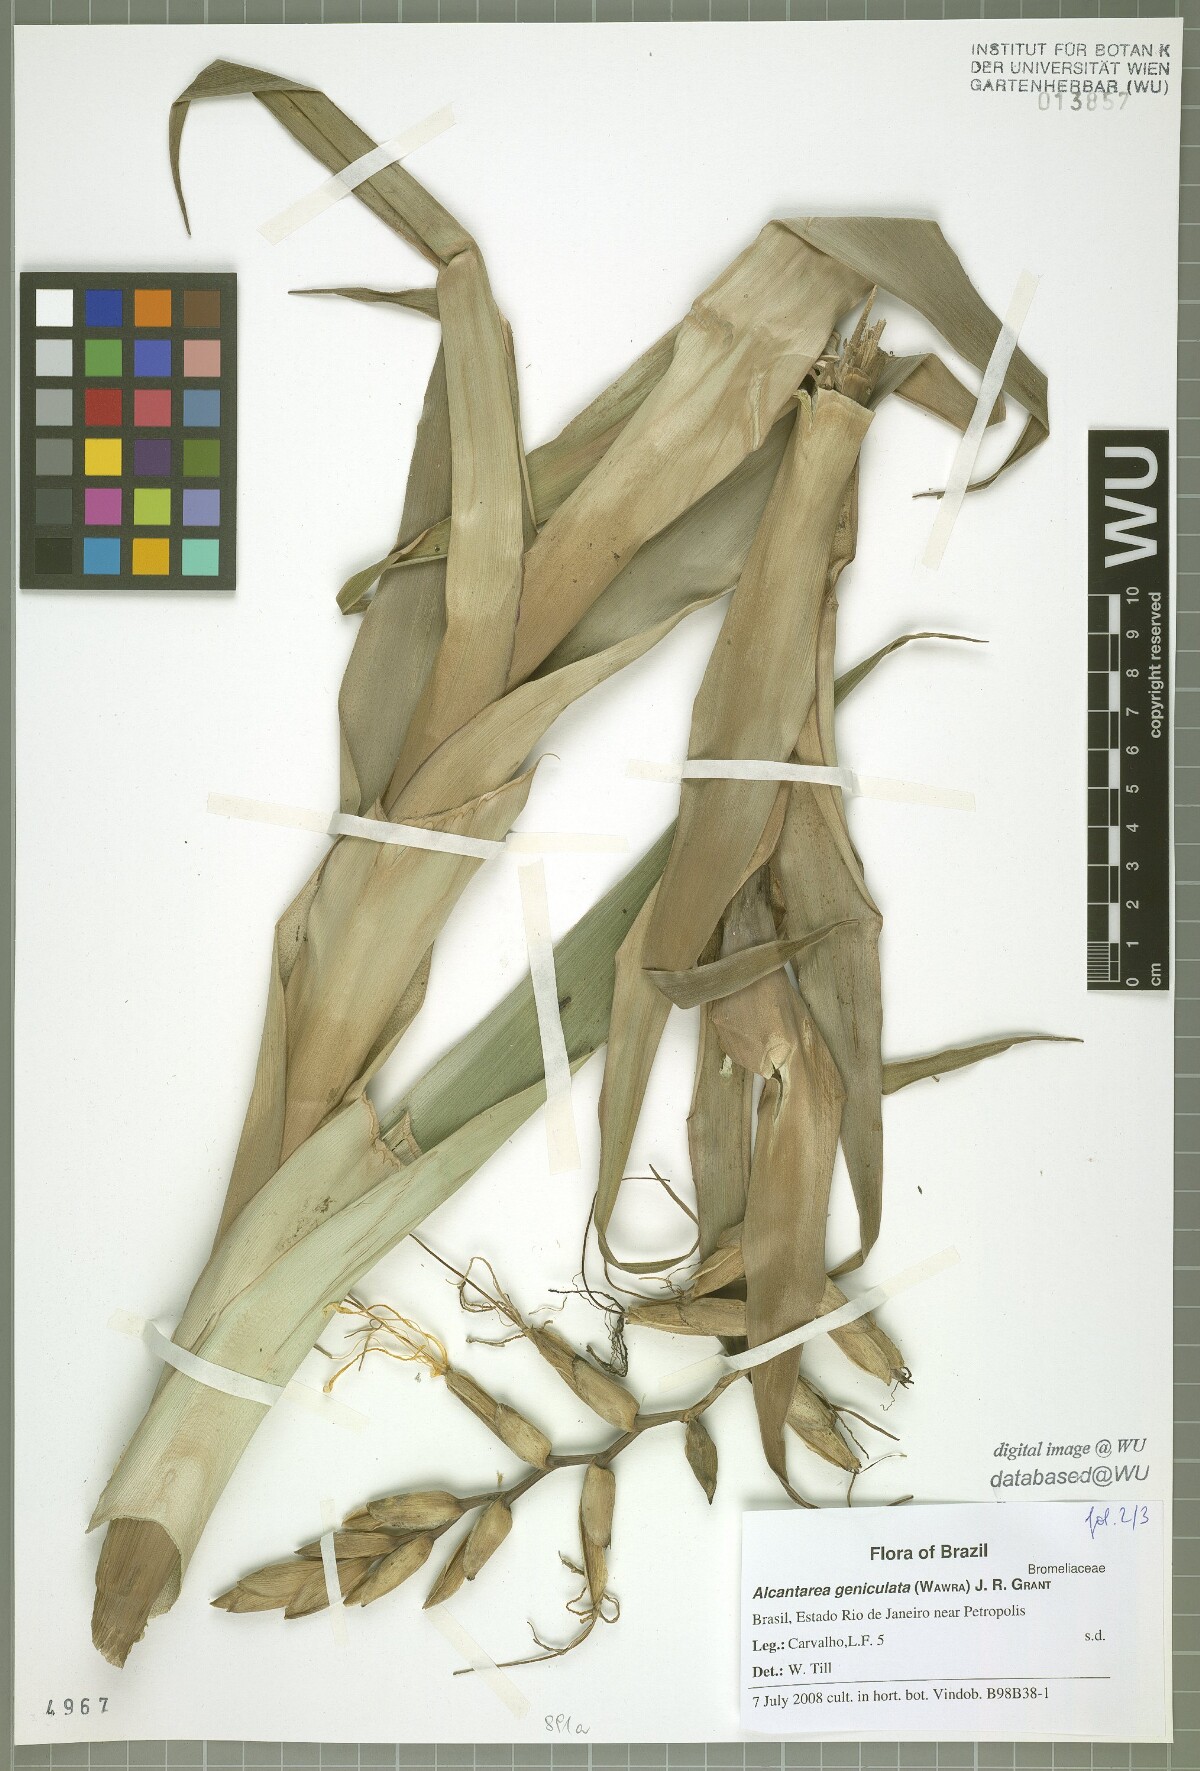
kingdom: Plantae
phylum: Tracheophyta
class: Liliopsida
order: Poales
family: Bromeliaceae
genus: Alcantarea
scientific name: Alcantarea geniculata
